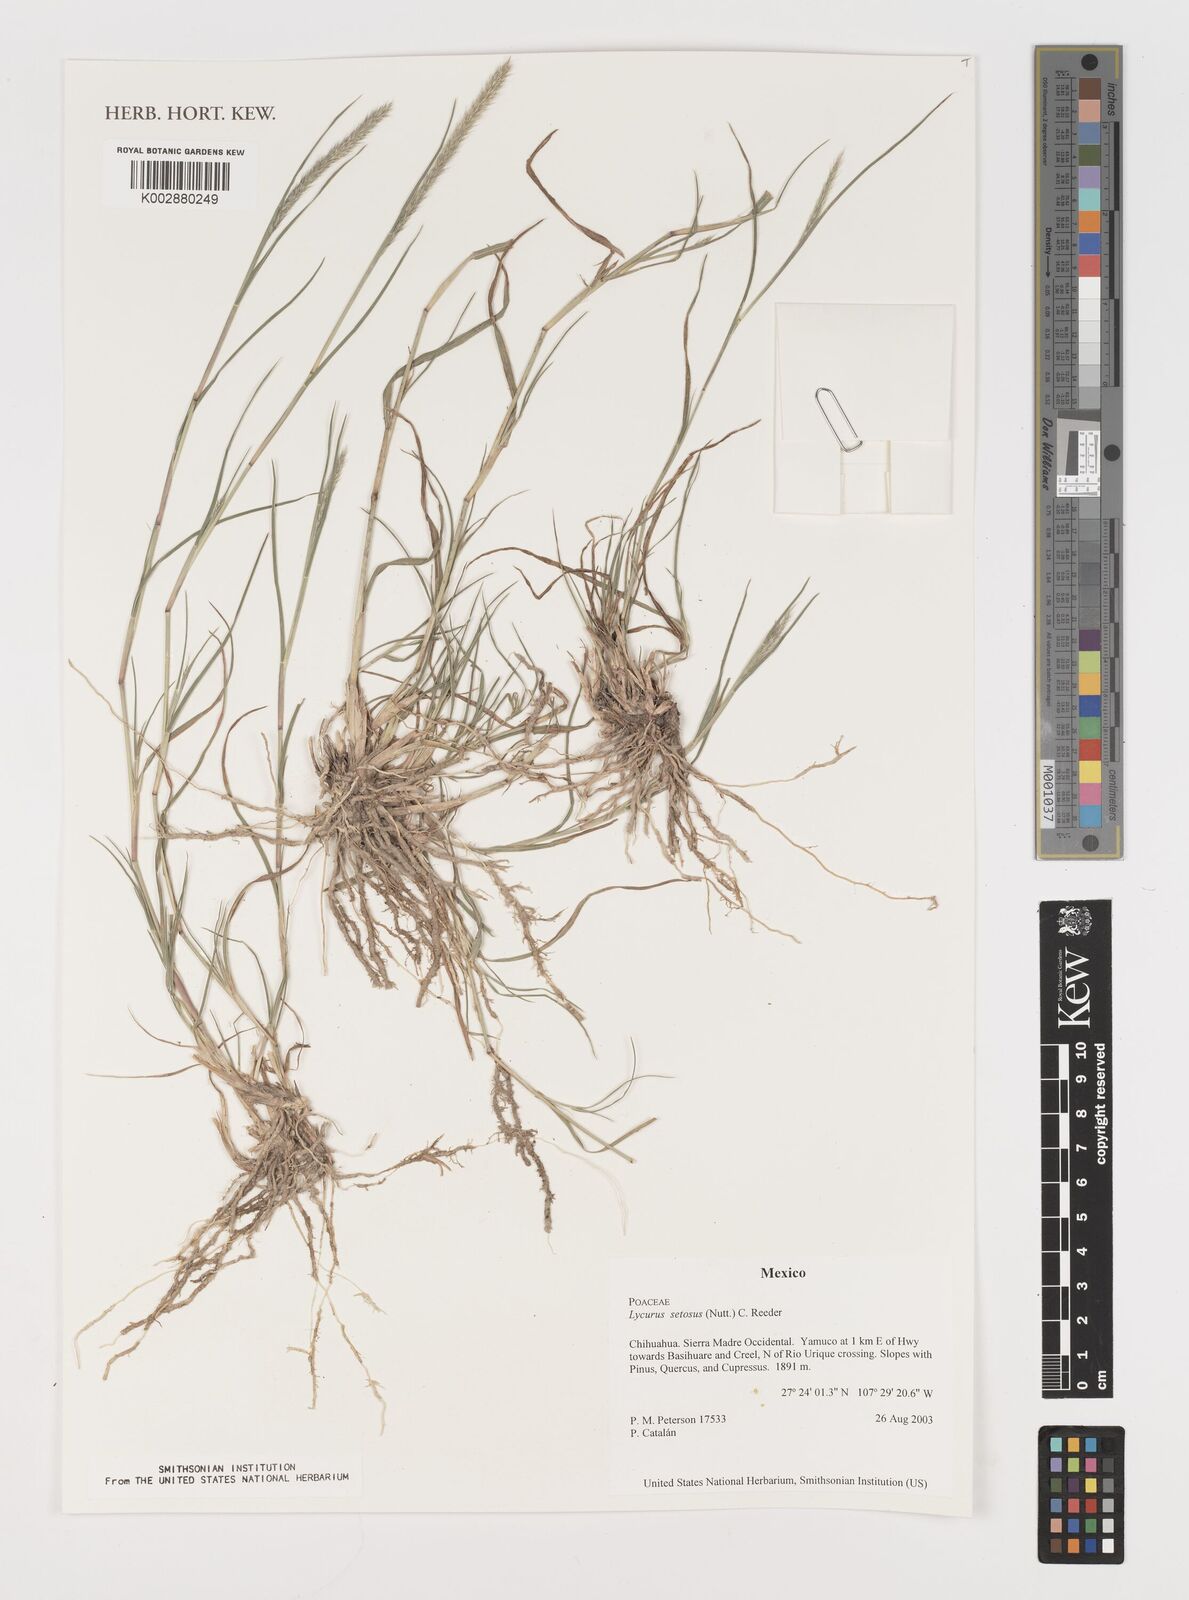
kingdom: Plantae
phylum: Tracheophyta
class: Liliopsida
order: Poales
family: Poaceae
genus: Muhlenbergia
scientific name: Muhlenbergia alopecuroides
